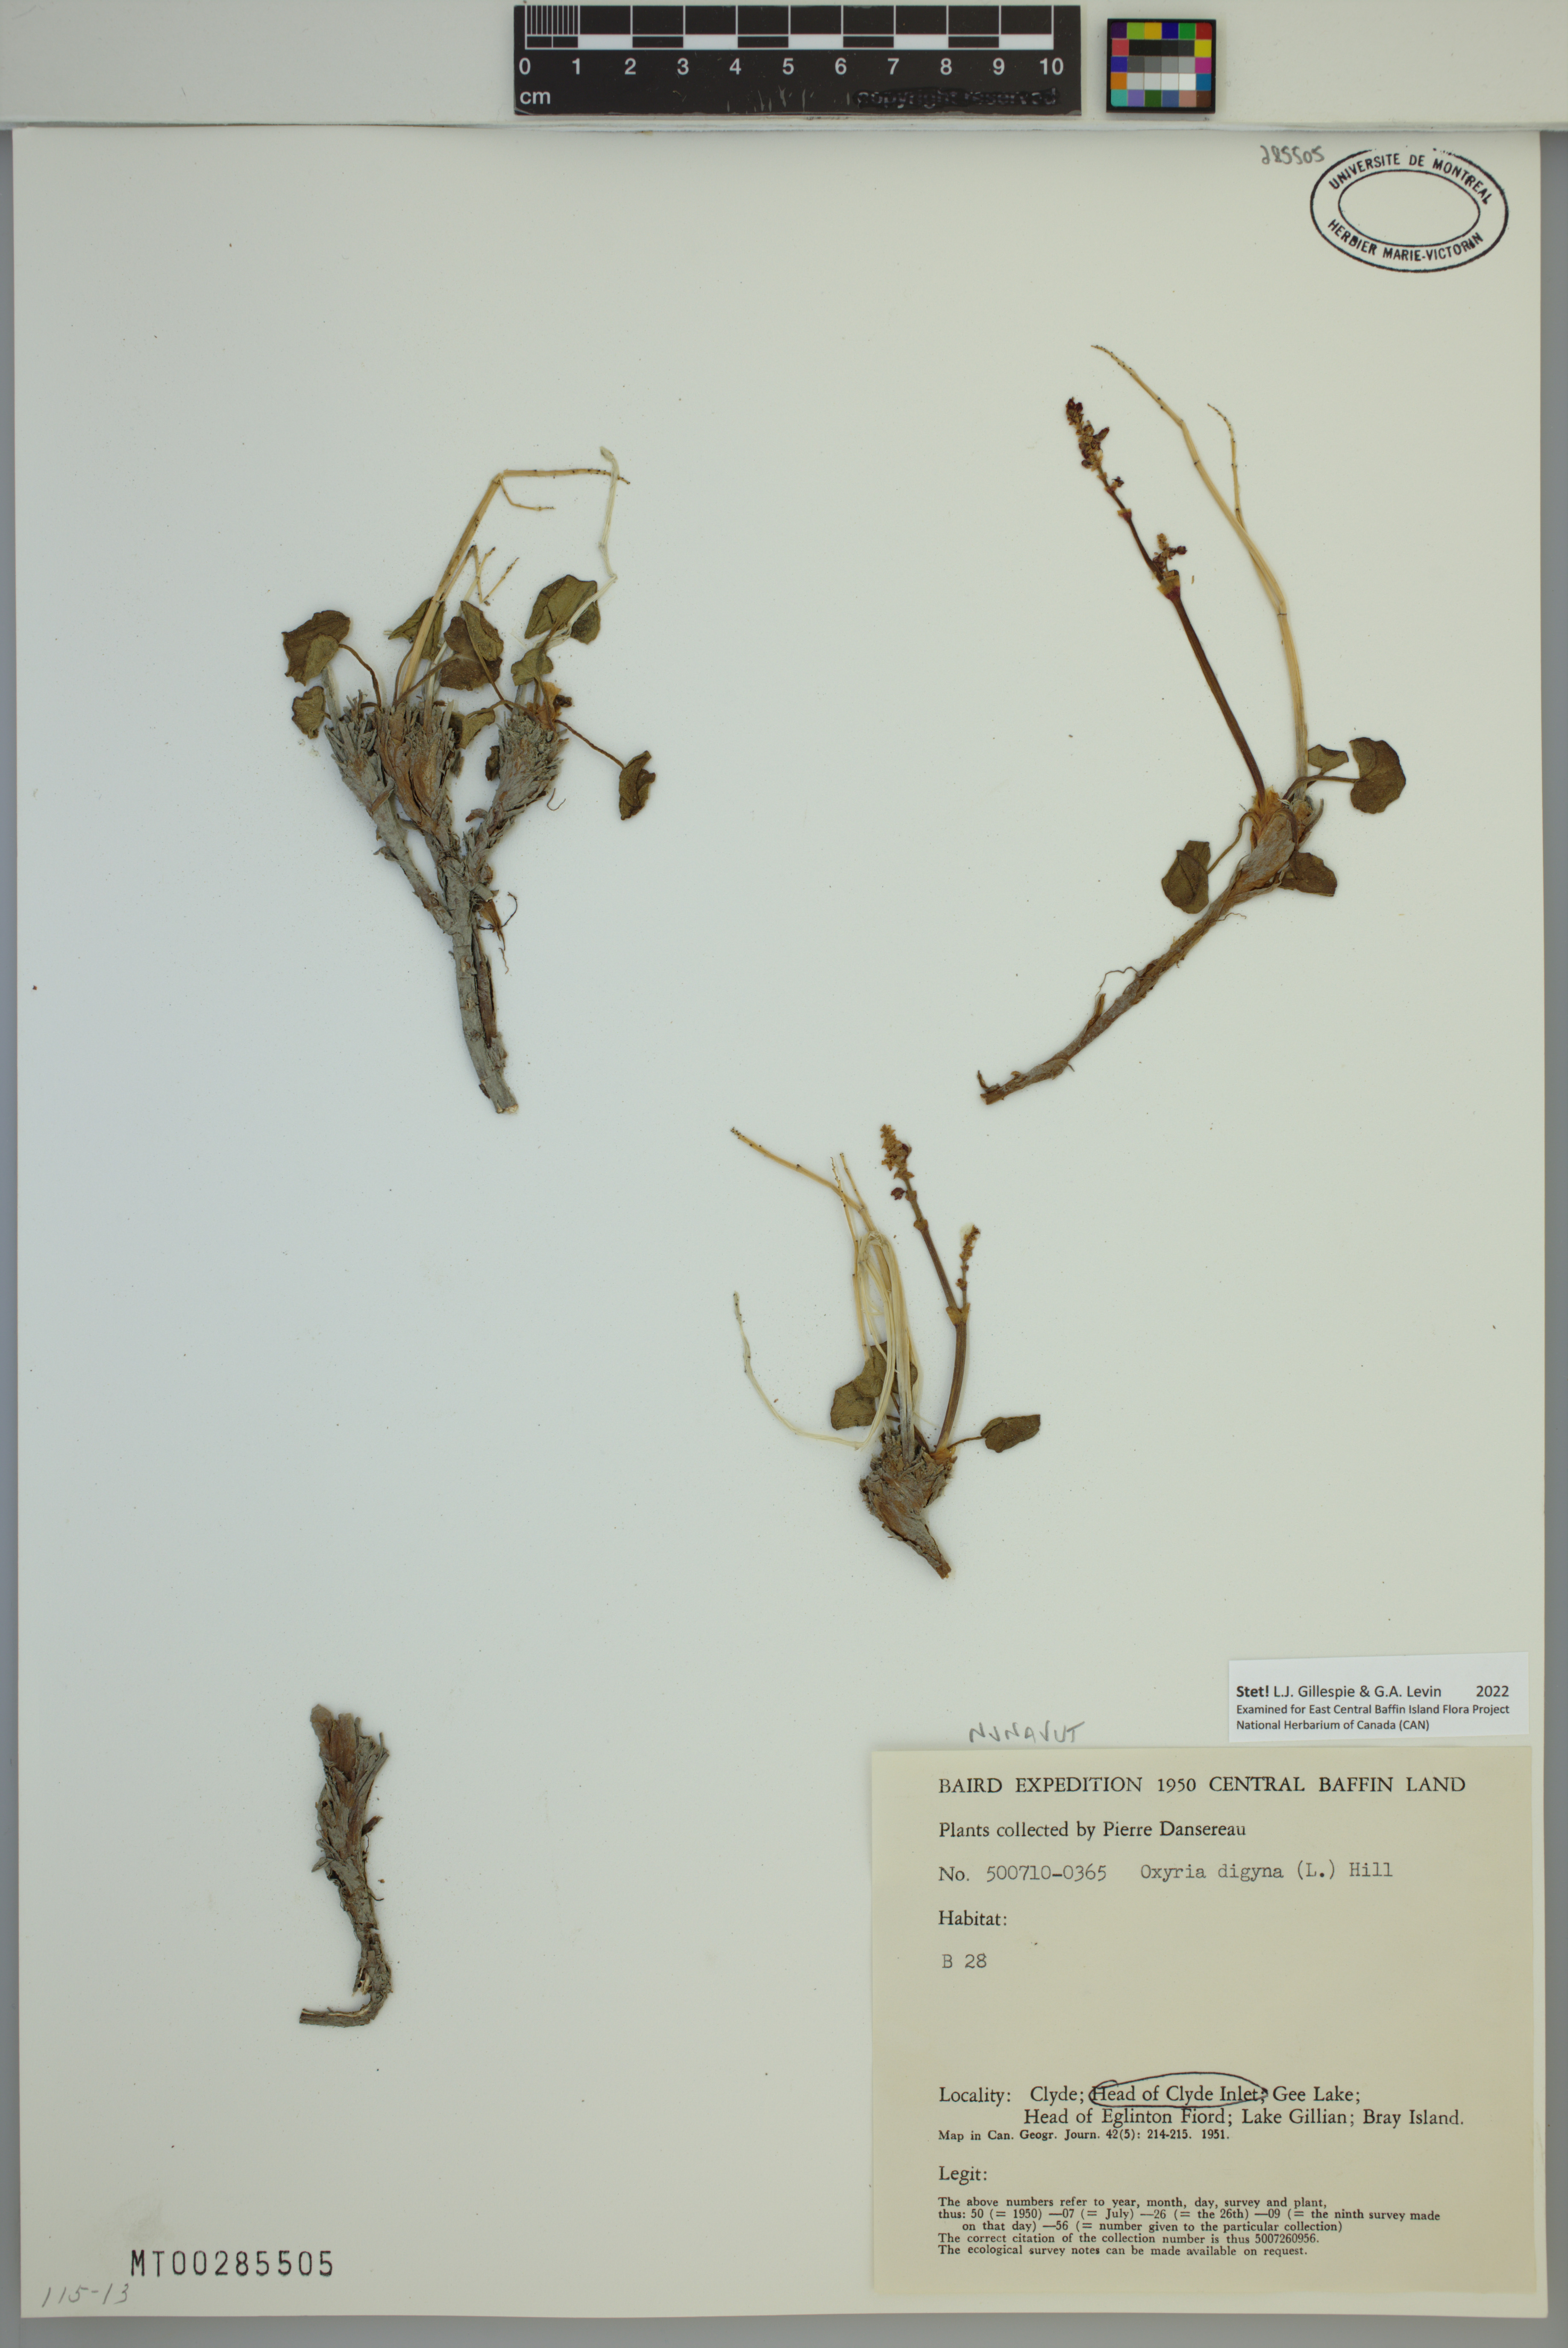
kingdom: Plantae
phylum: Tracheophyta
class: Magnoliopsida
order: Caryophyllales
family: Polygonaceae
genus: Oxyria
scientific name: Oxyria digyna
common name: Alpine mountain-sorrel
